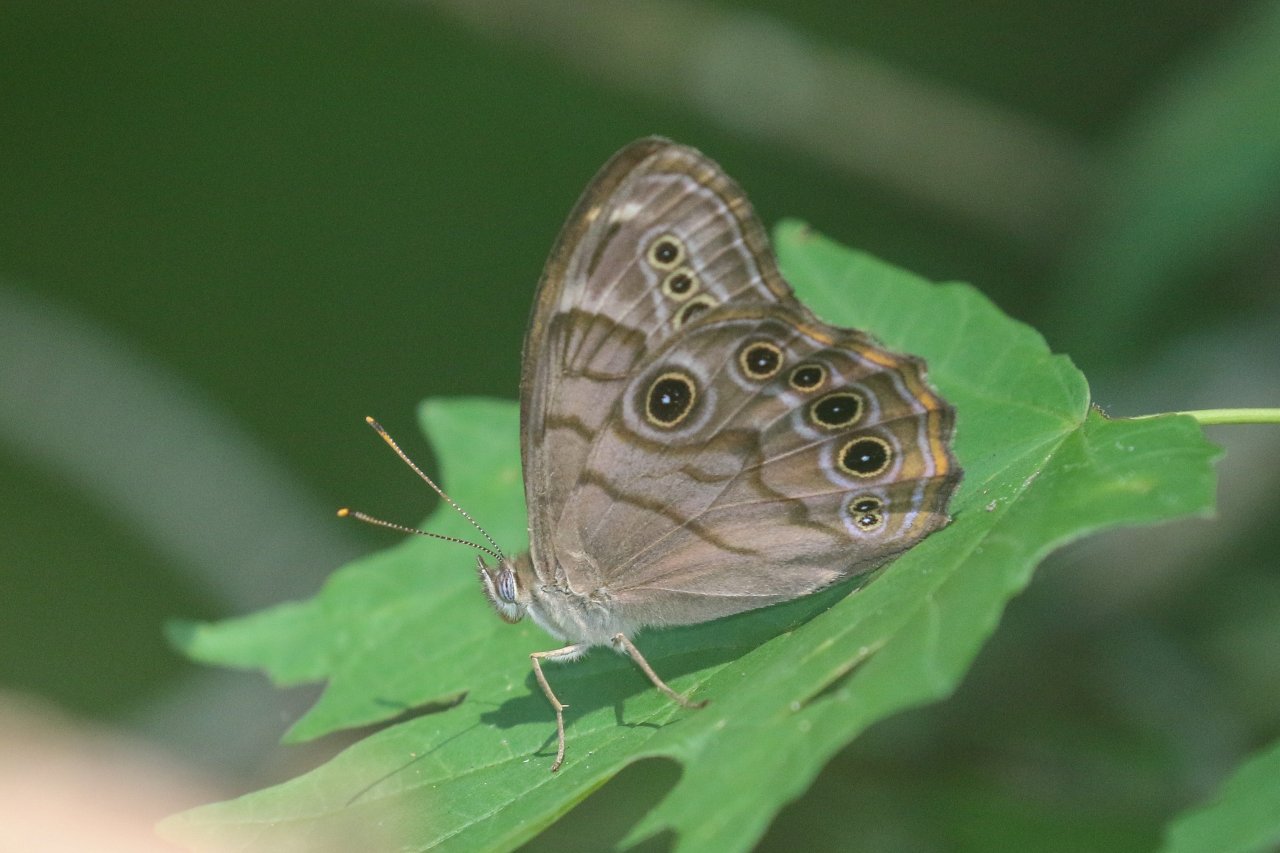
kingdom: Animalia
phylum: Arthropoda
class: Insecta
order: Lepidoptera
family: Nymphalidae
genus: Lethe
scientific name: Lethe anthedon
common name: Northern Pearly-Eye
